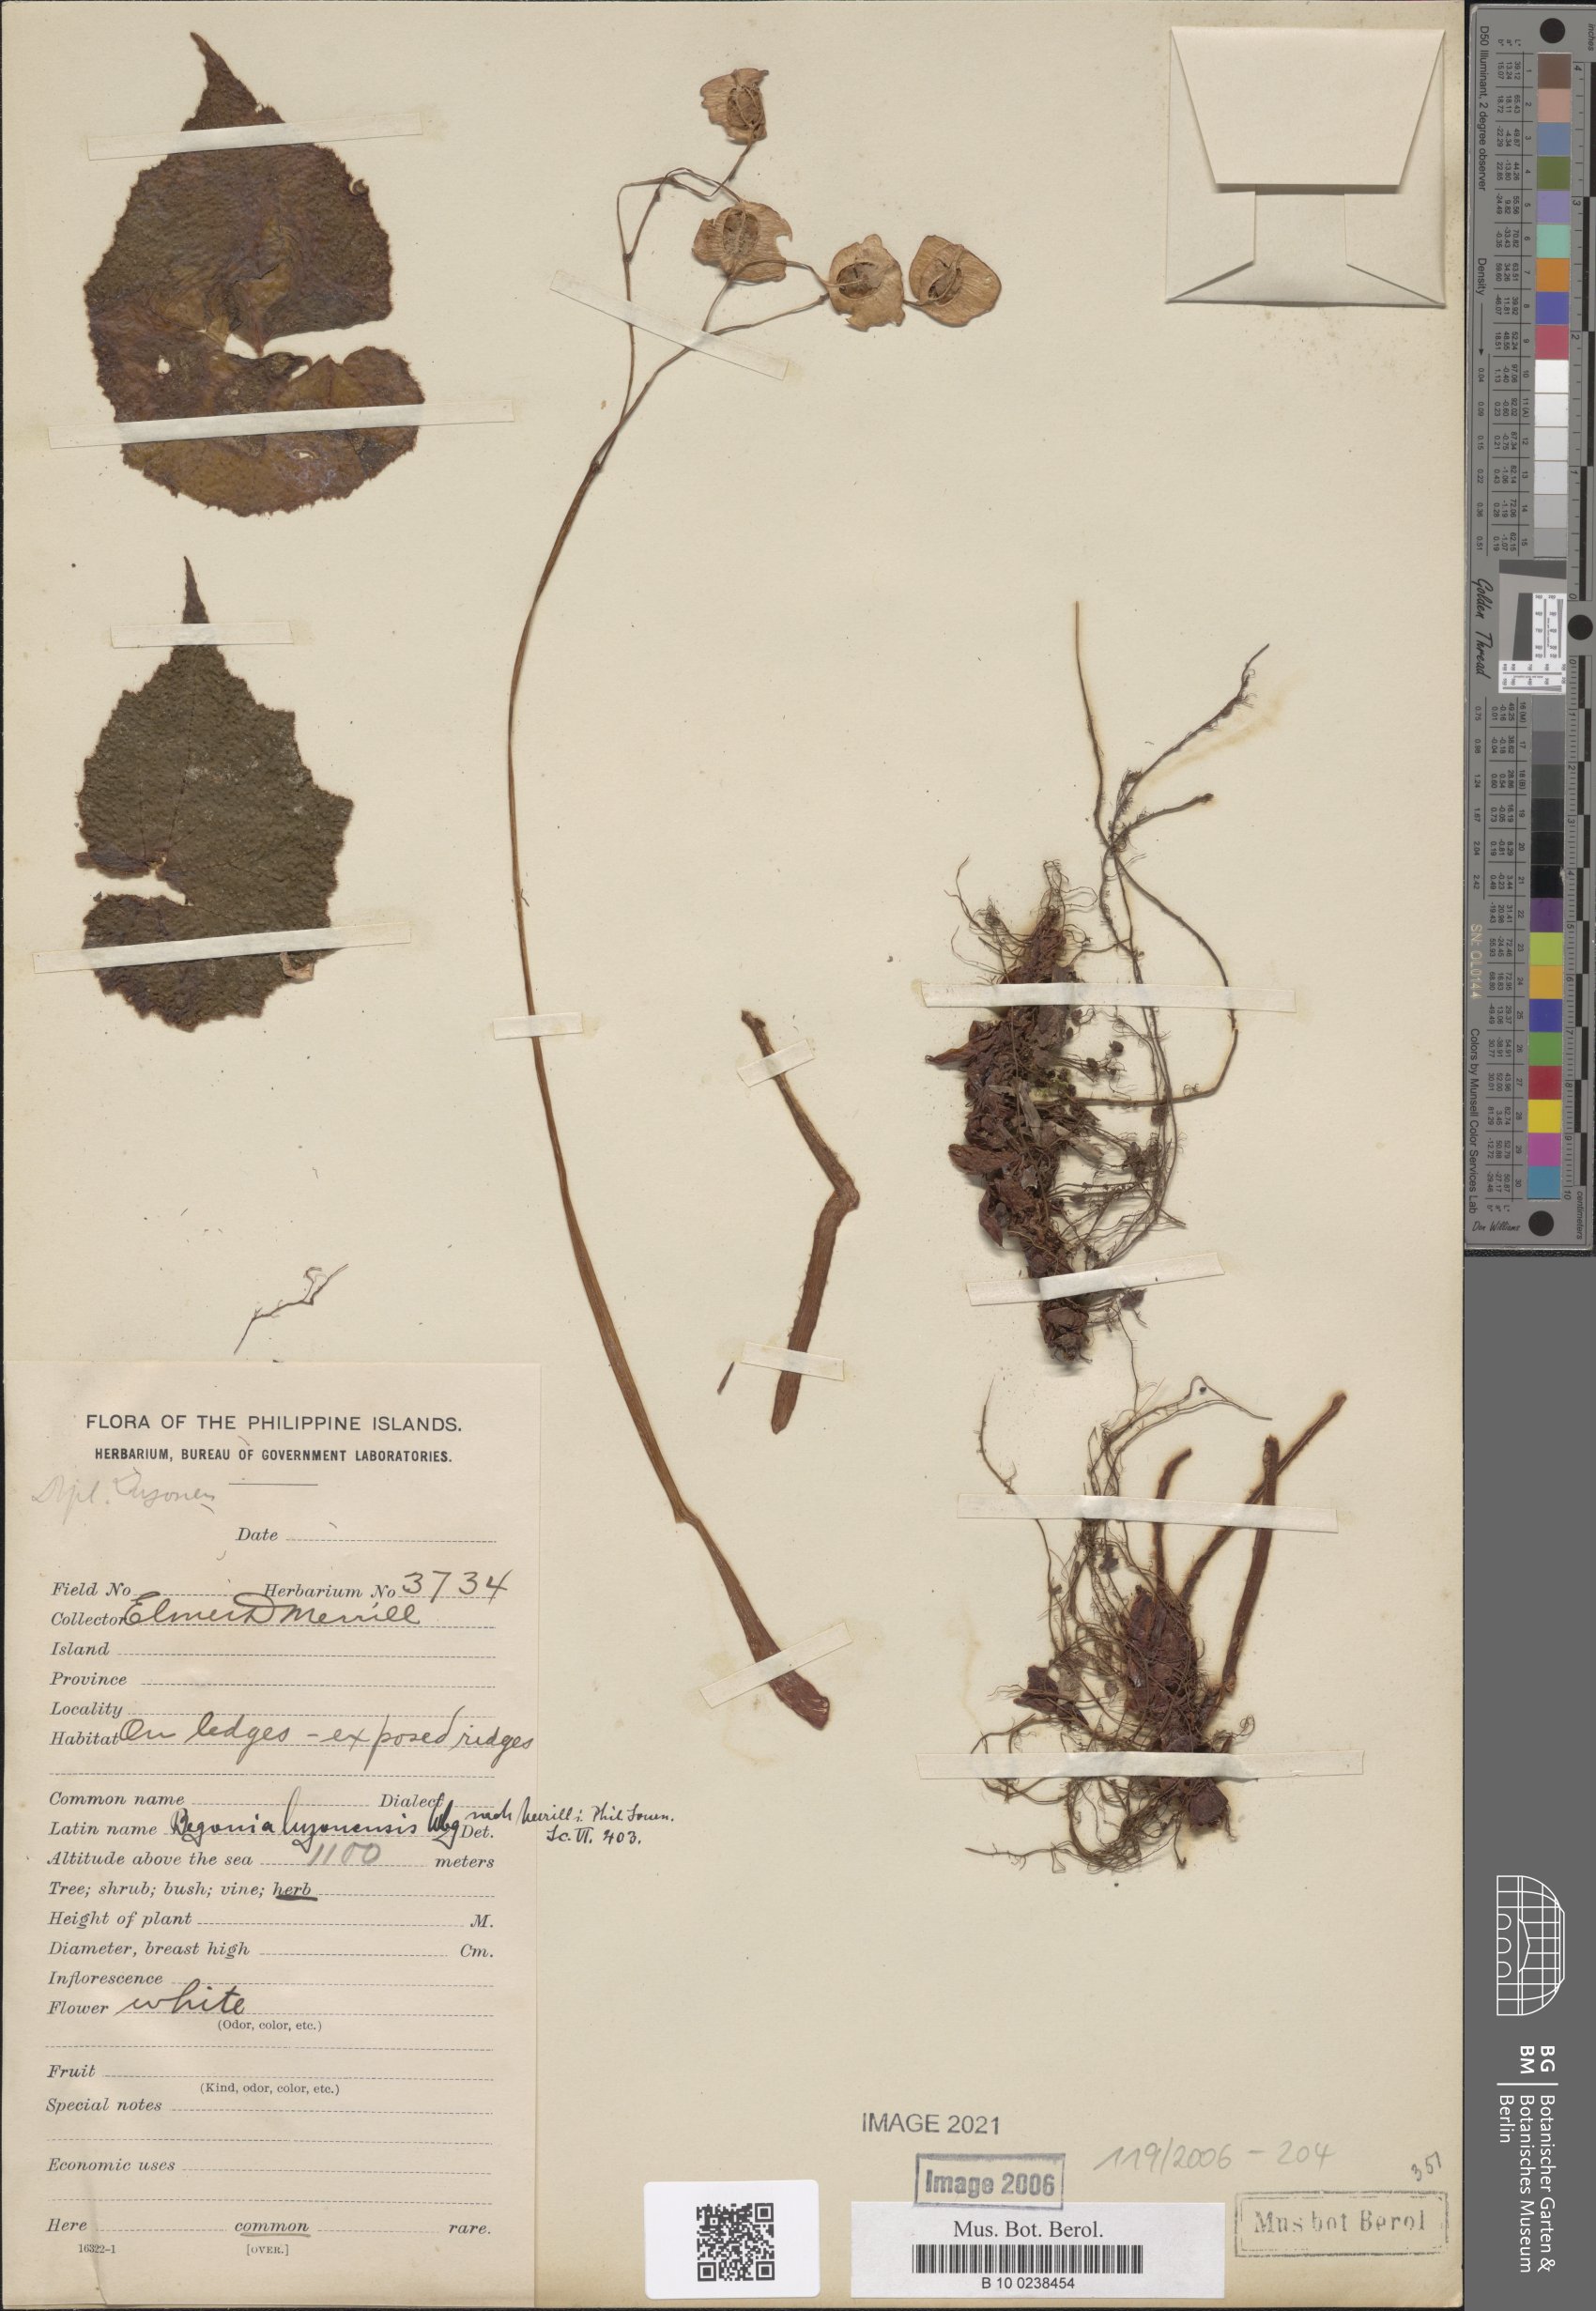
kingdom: Plantae
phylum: Tracheophyta
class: Magnoliopsida
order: Cucurbitales
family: Begoniaceae
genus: Begonia
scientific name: Begonia luzonensis
